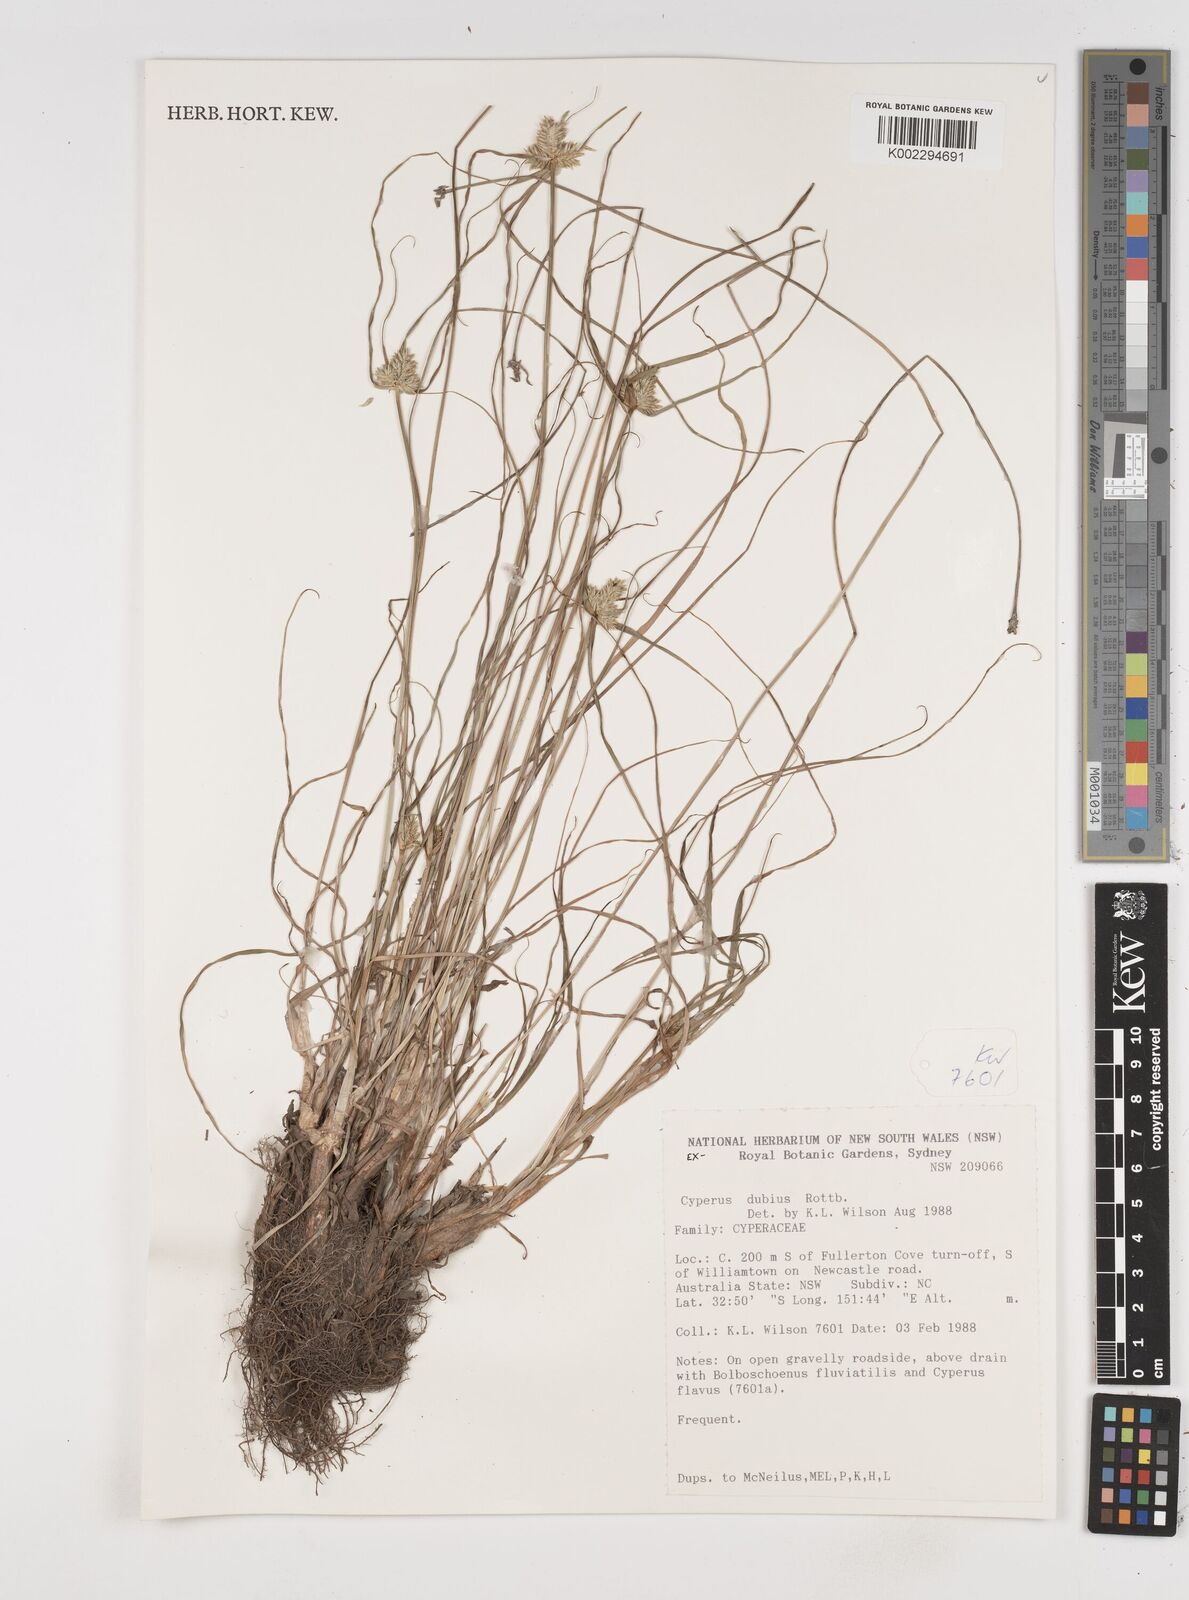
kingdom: Plantae
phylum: Tracheophyta
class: Liliopsida
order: Poales
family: Cyperaceae
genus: Cyperus
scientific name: Cyperus dubius
